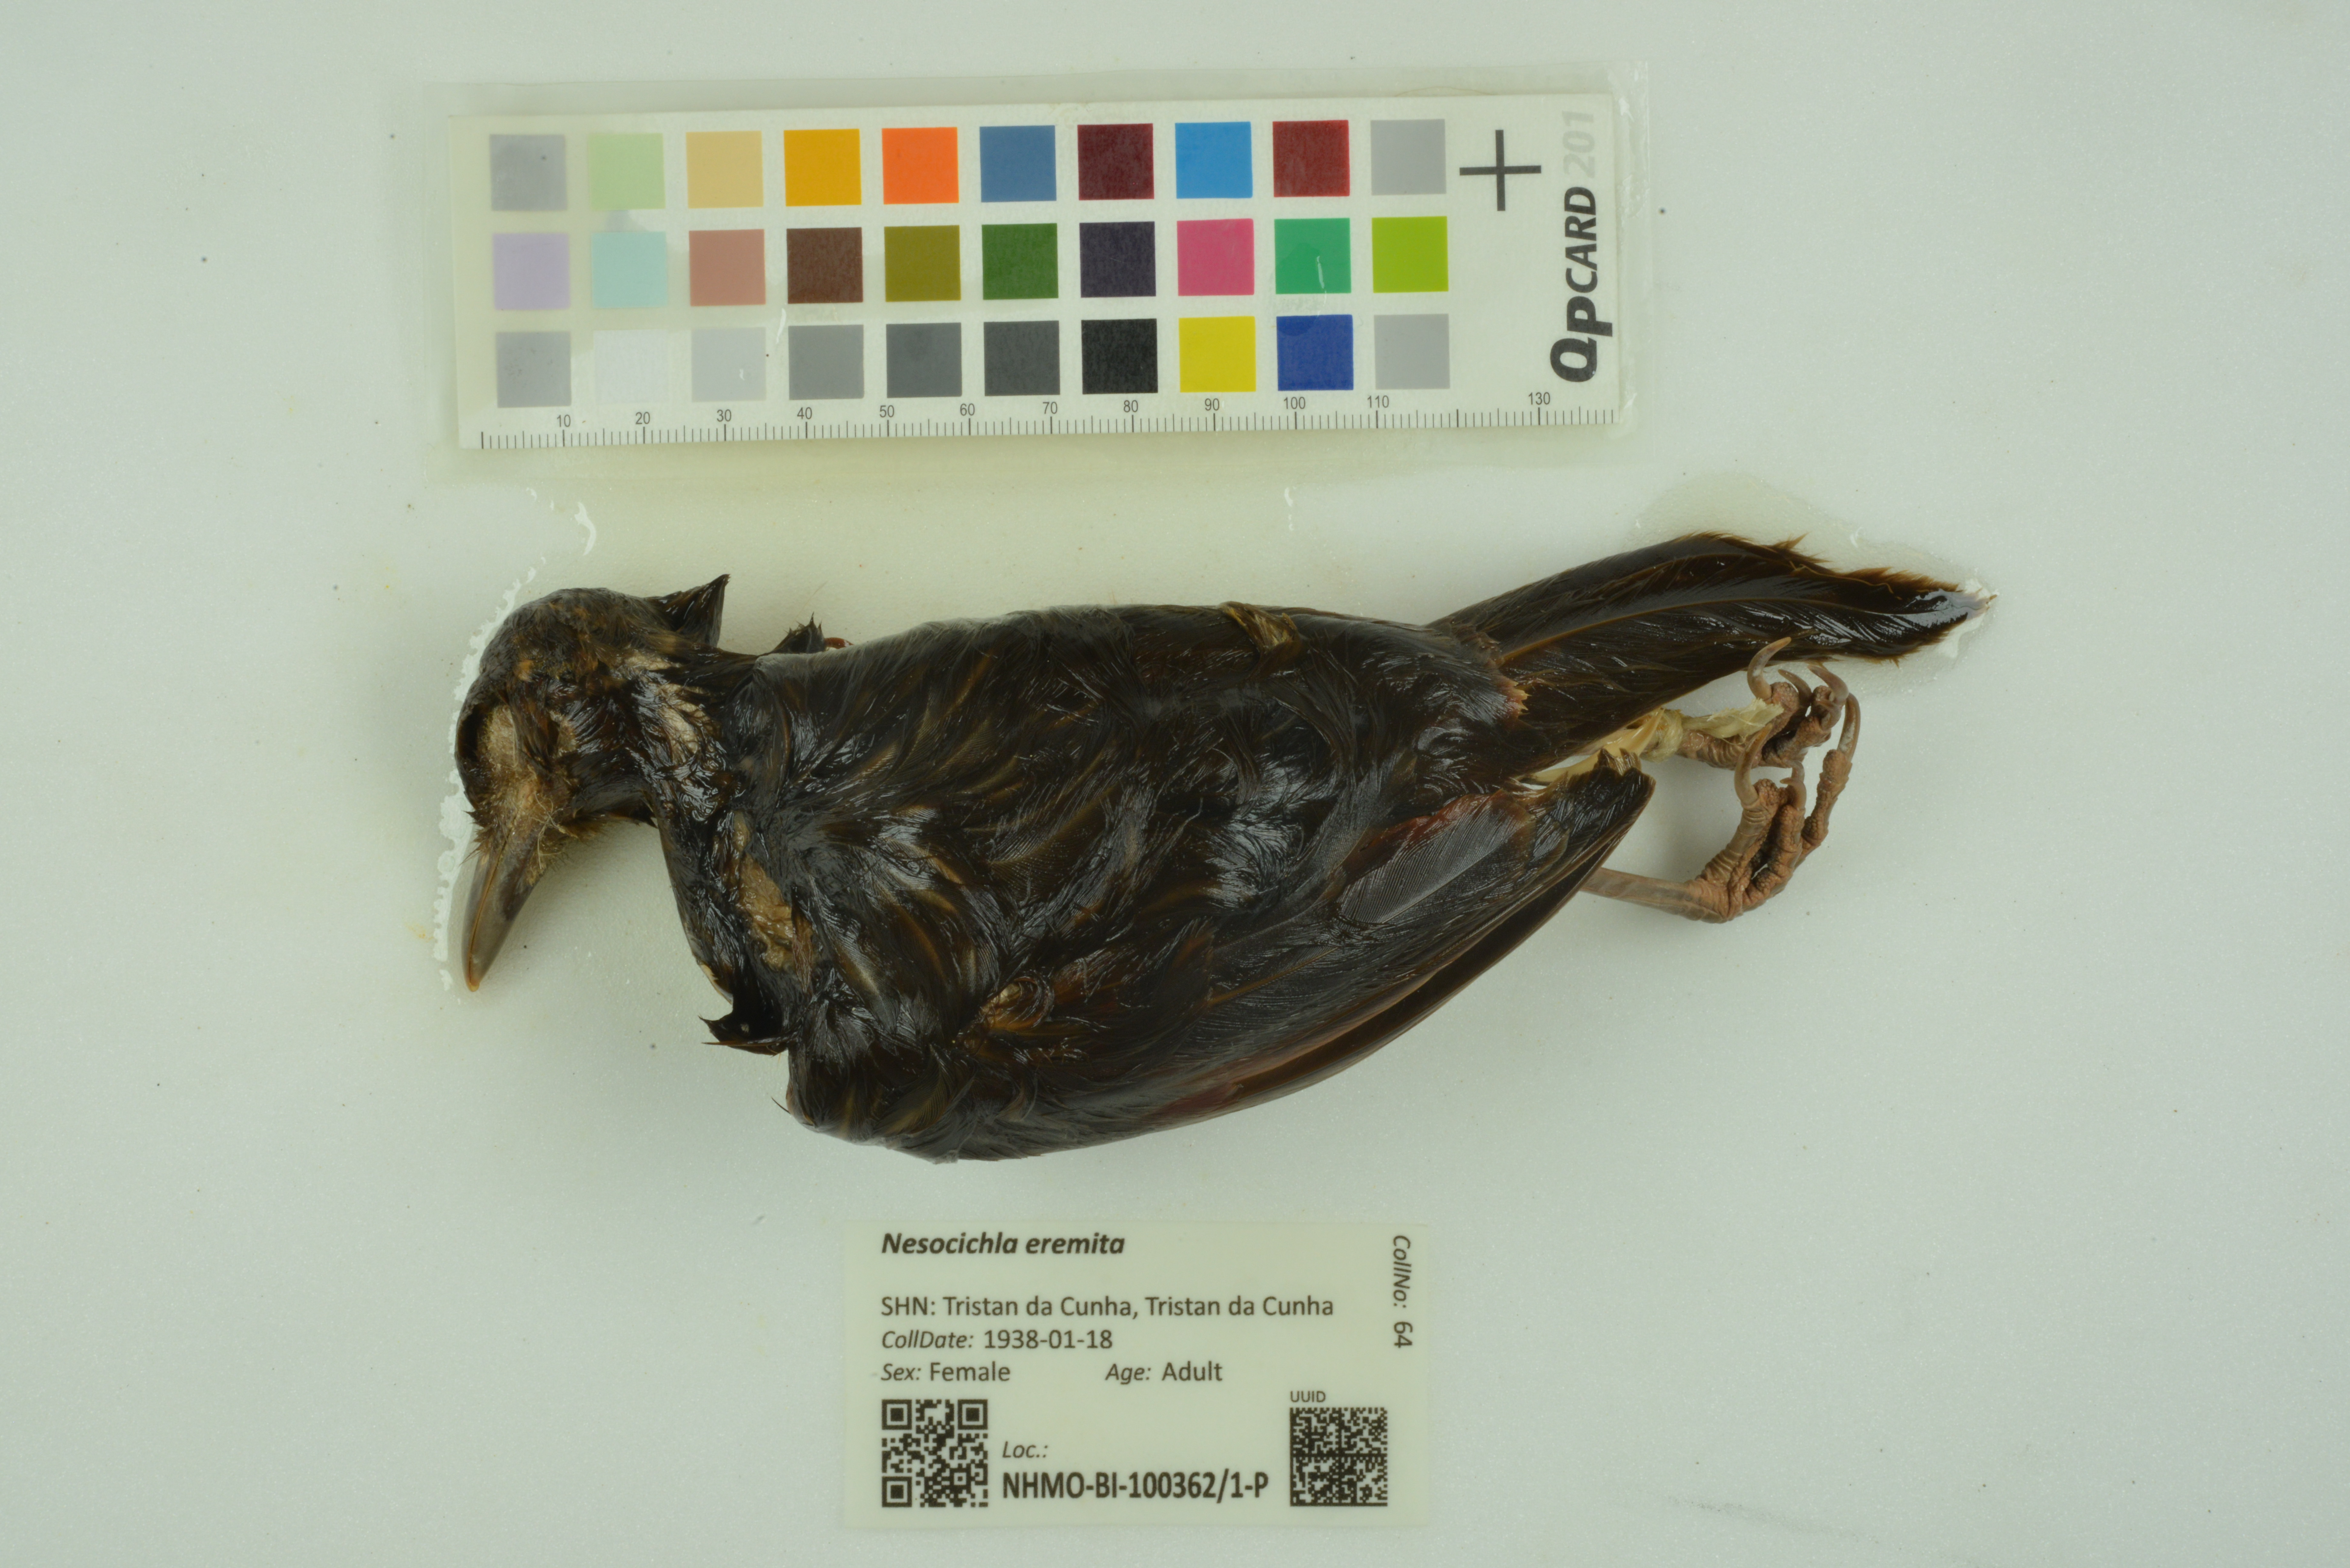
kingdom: Animalia
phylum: Chordata
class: Aves
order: Passeriformes
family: Turdidae
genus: Nesocichla
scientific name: Nesocichla eremita
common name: Tristan thrush
